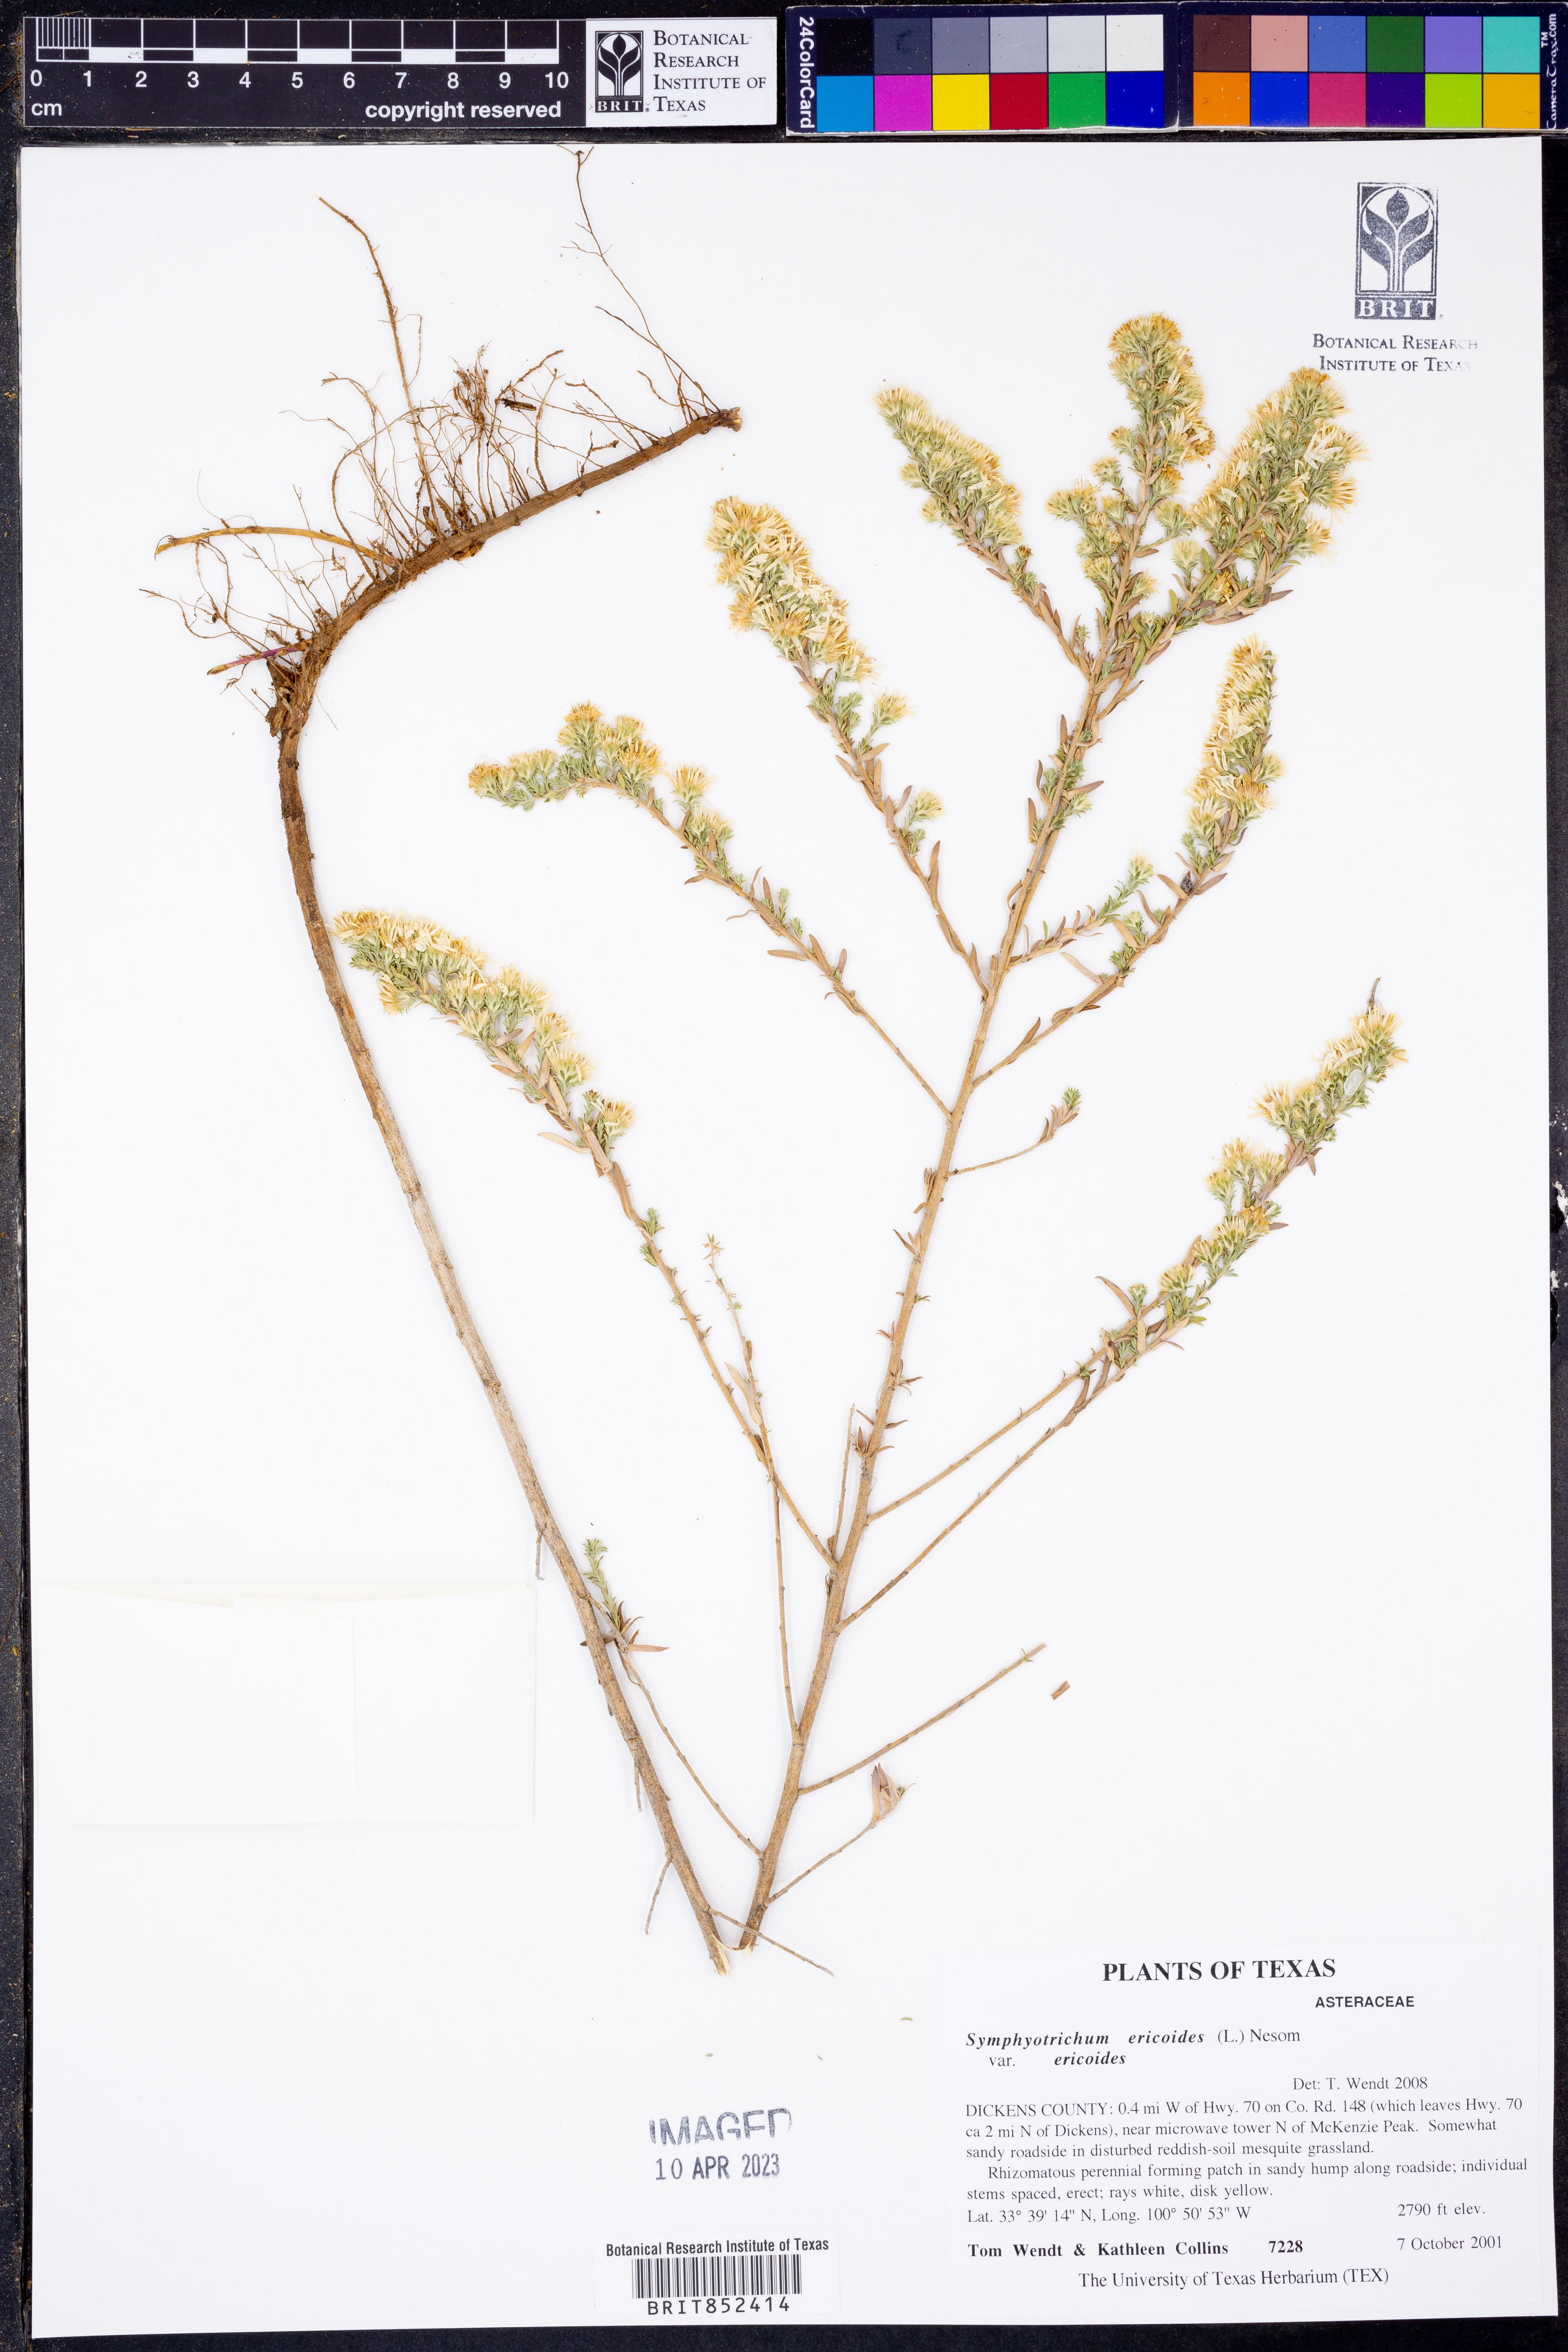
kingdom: Plantae
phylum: Tracheophyta
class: Magnoliopsida
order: Asterales
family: Asteraceae
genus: Symphyotrichum
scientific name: Symphyotrichum ericoides
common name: Heath aster
